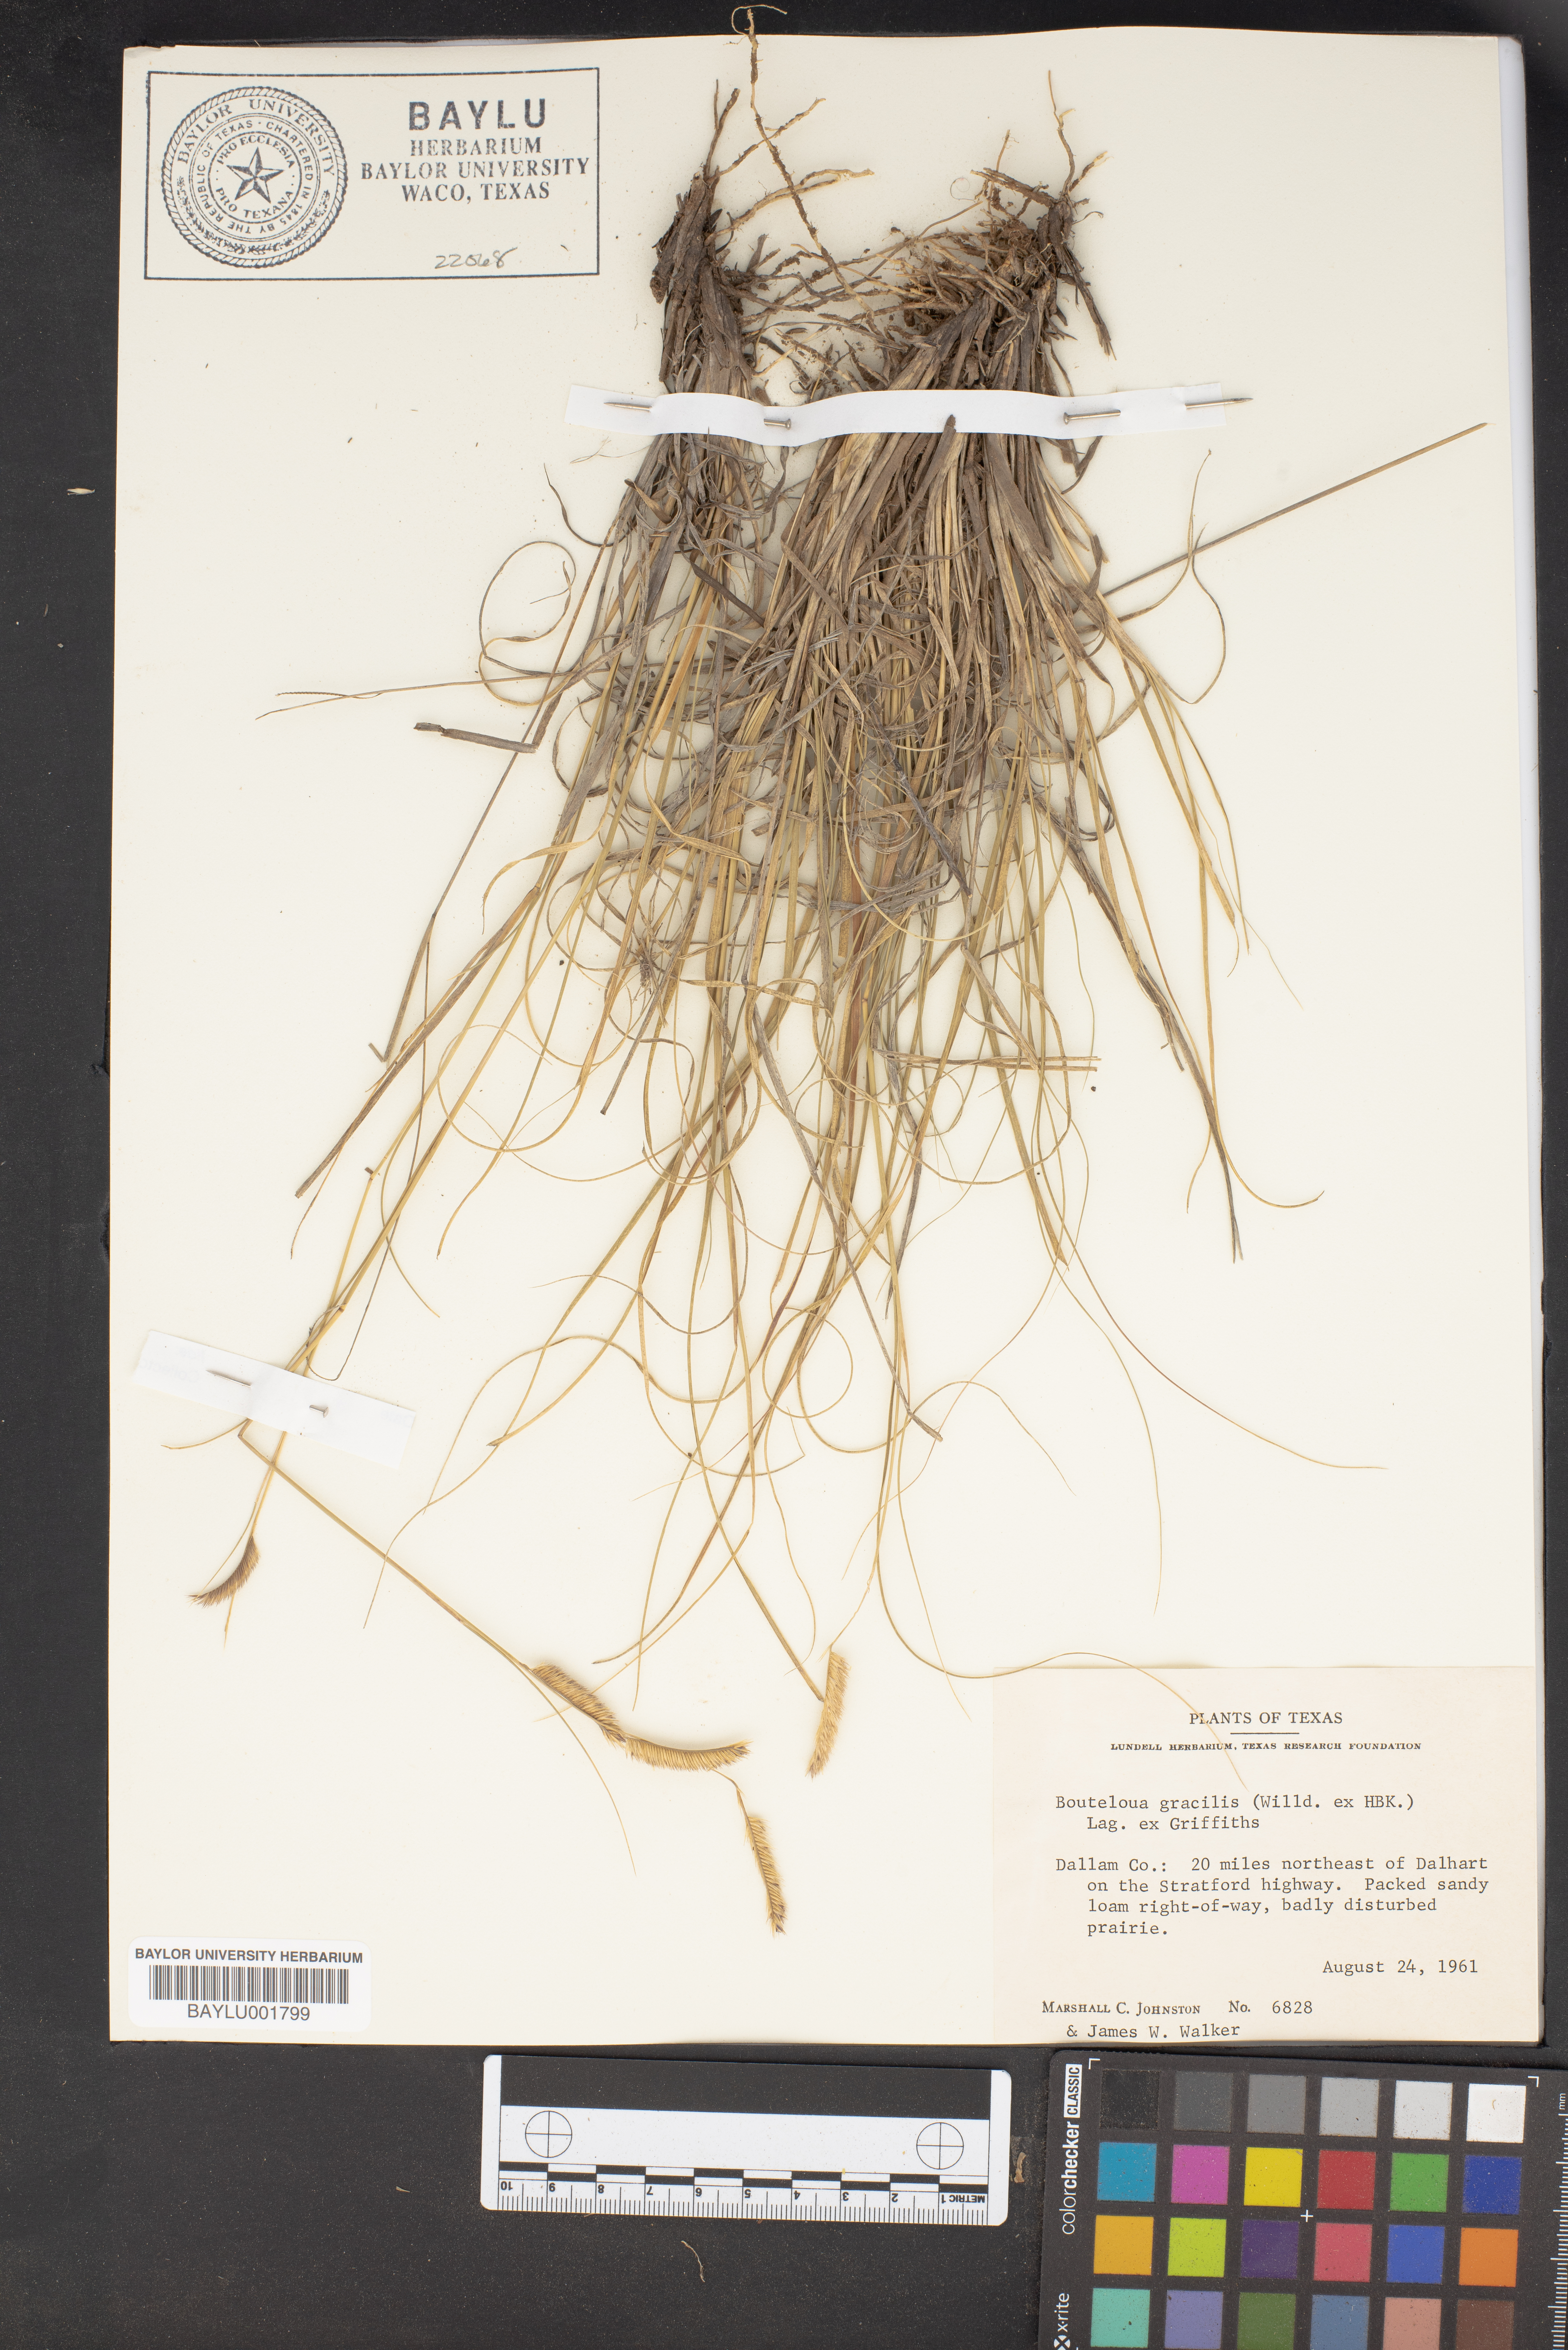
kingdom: Plantae
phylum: Tracheophyta
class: Liliopsida
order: Poales
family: Poaceae
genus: Bouteloua
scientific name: Bouteloua gracilis
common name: Blue grama
